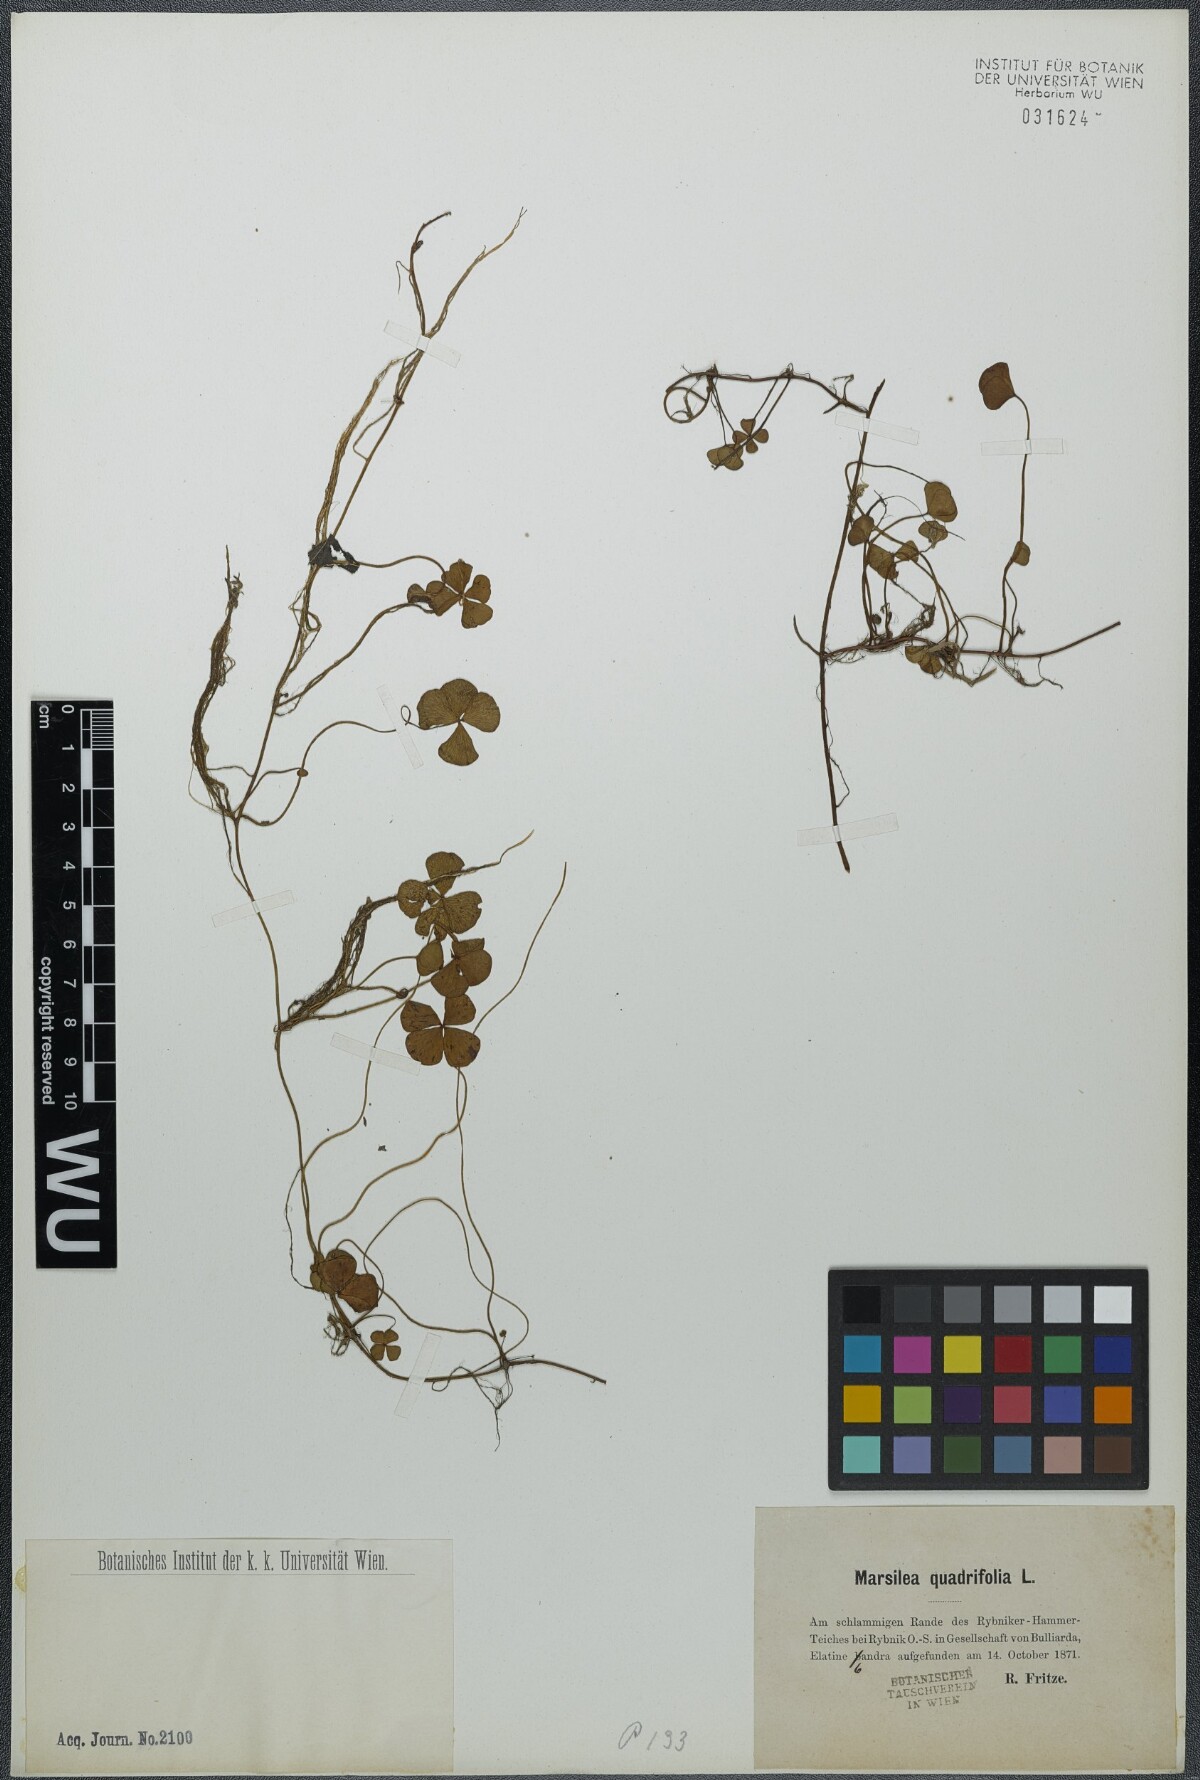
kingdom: Plantae
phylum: Tracheophyta
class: Polypodiopsida
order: Salviniales
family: Marsileaceae
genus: Marsilea
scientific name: Marsilea quadrifolia
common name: Water shamrock
